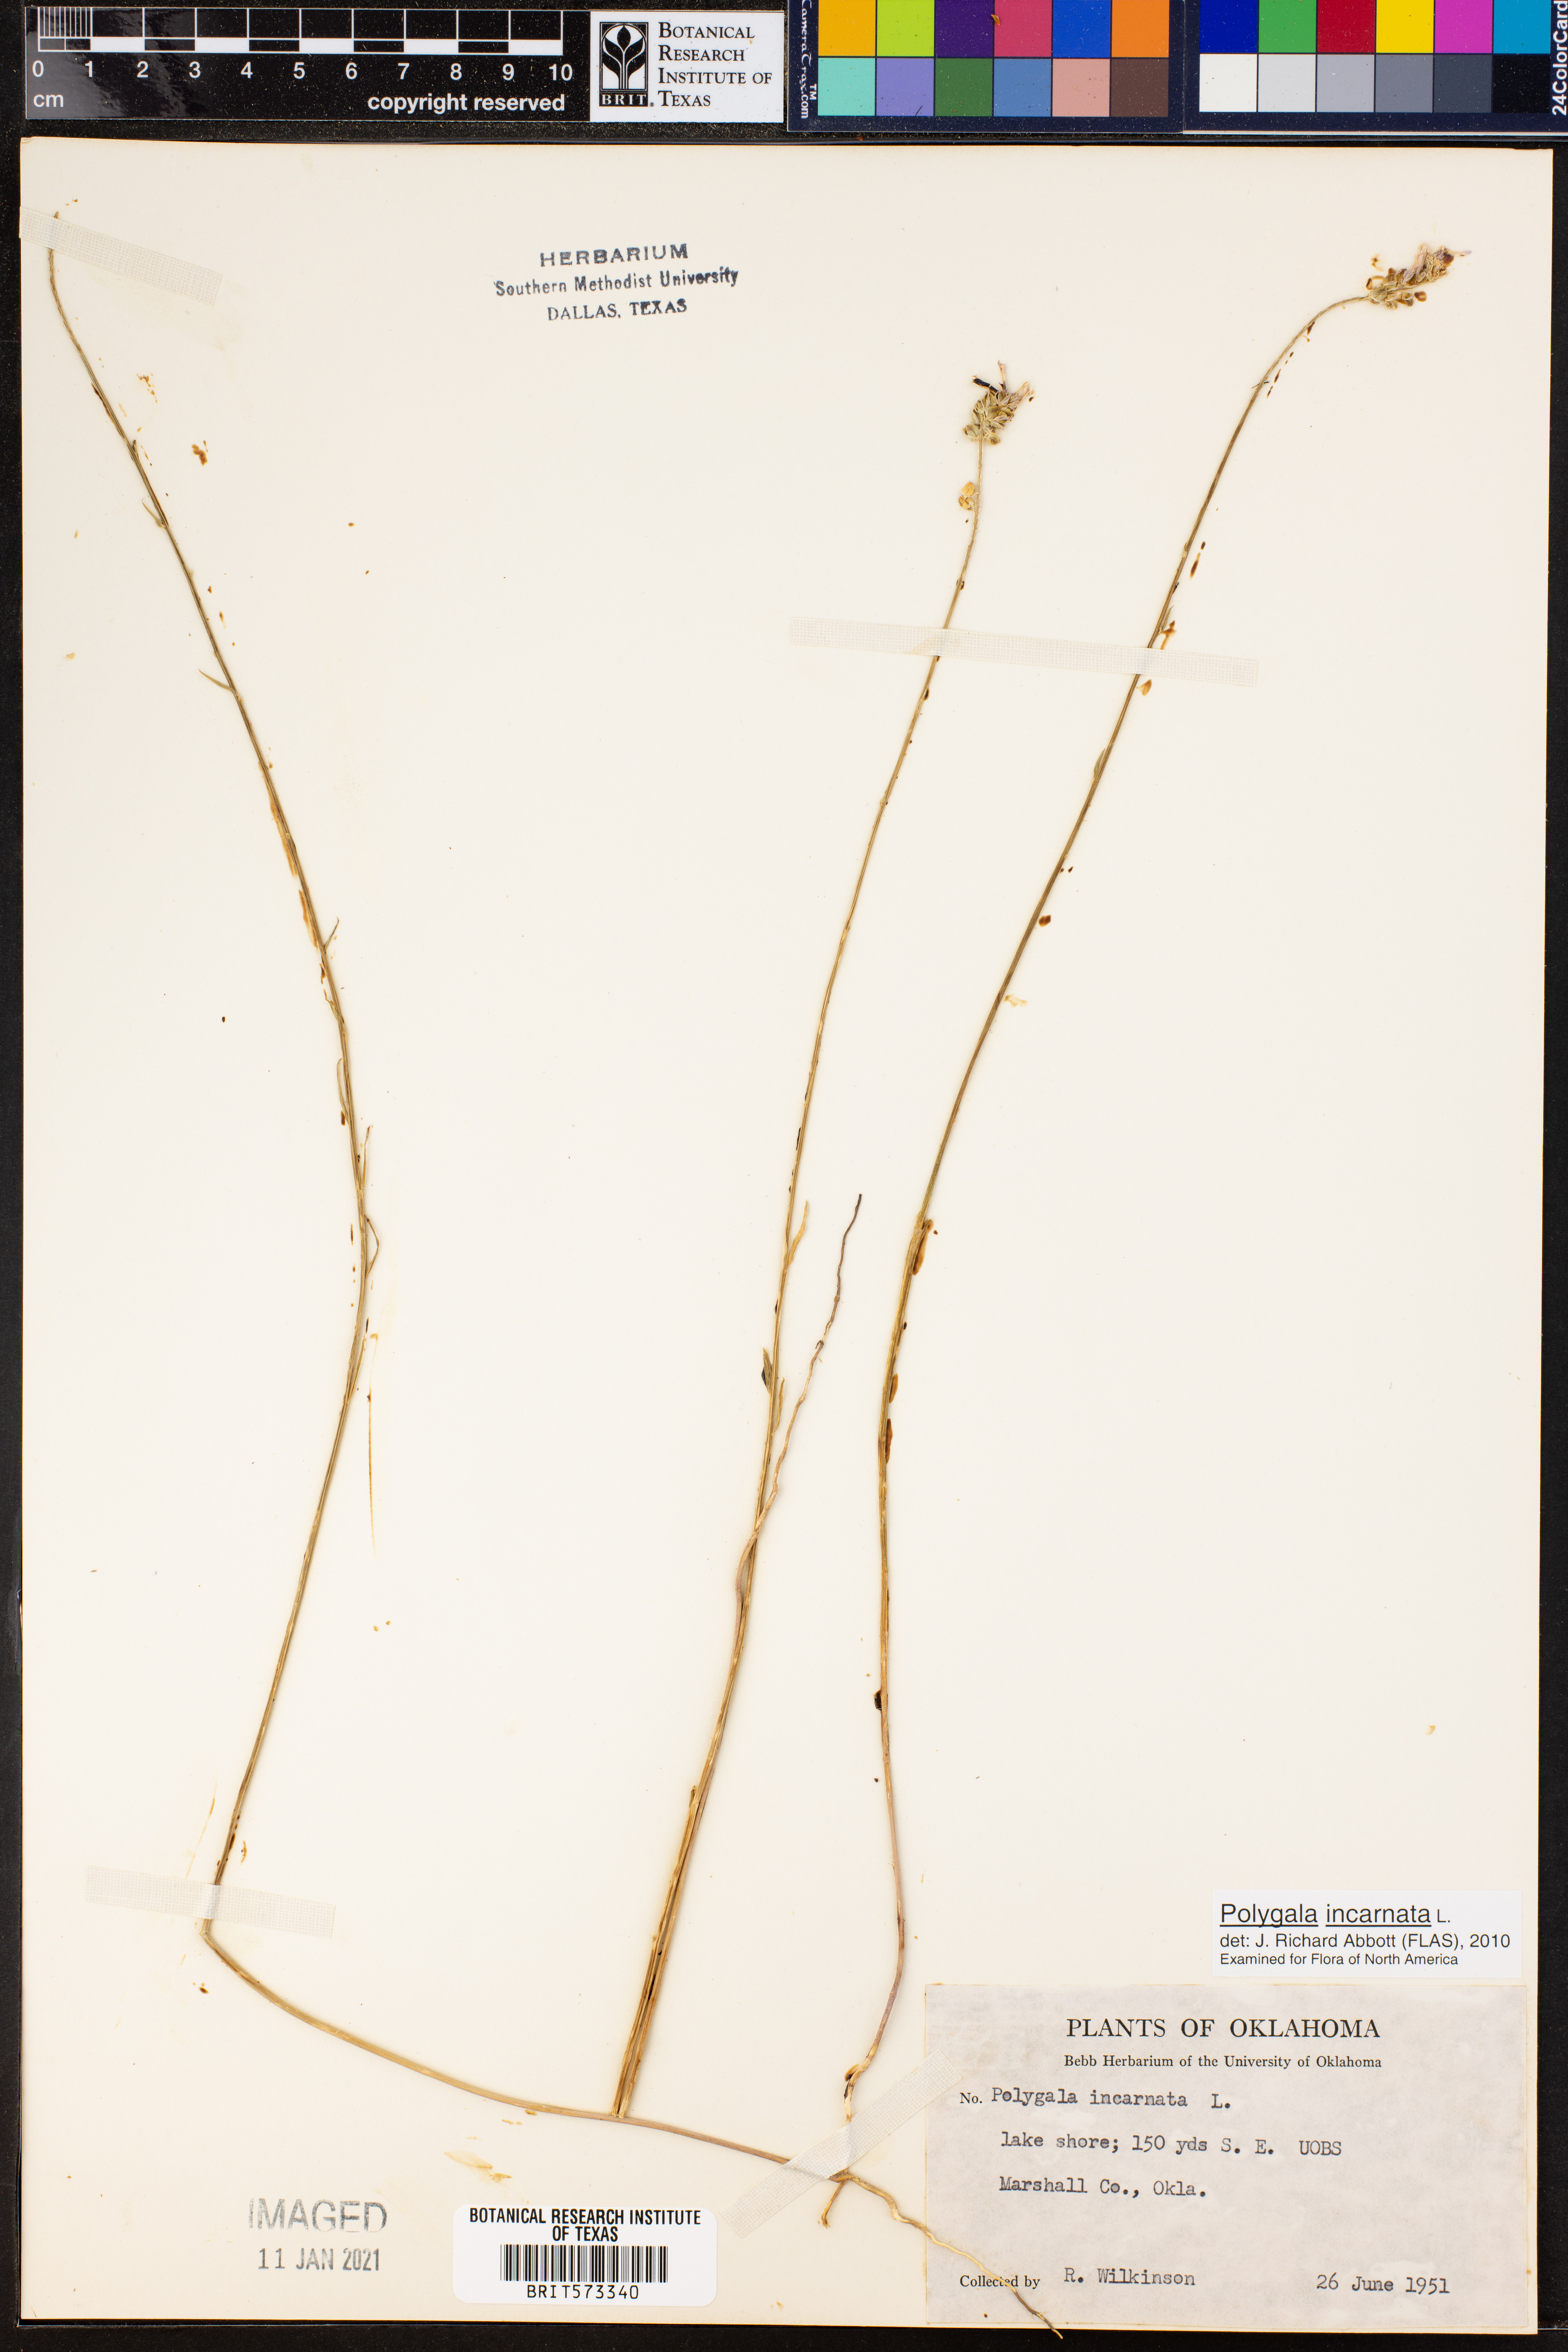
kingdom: Plantae
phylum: Tracheophyta
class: Magnoliopsida
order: Fabales
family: Polygalaceae
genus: Polygala
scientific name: Polygala incarnata
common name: Pink milkwort
